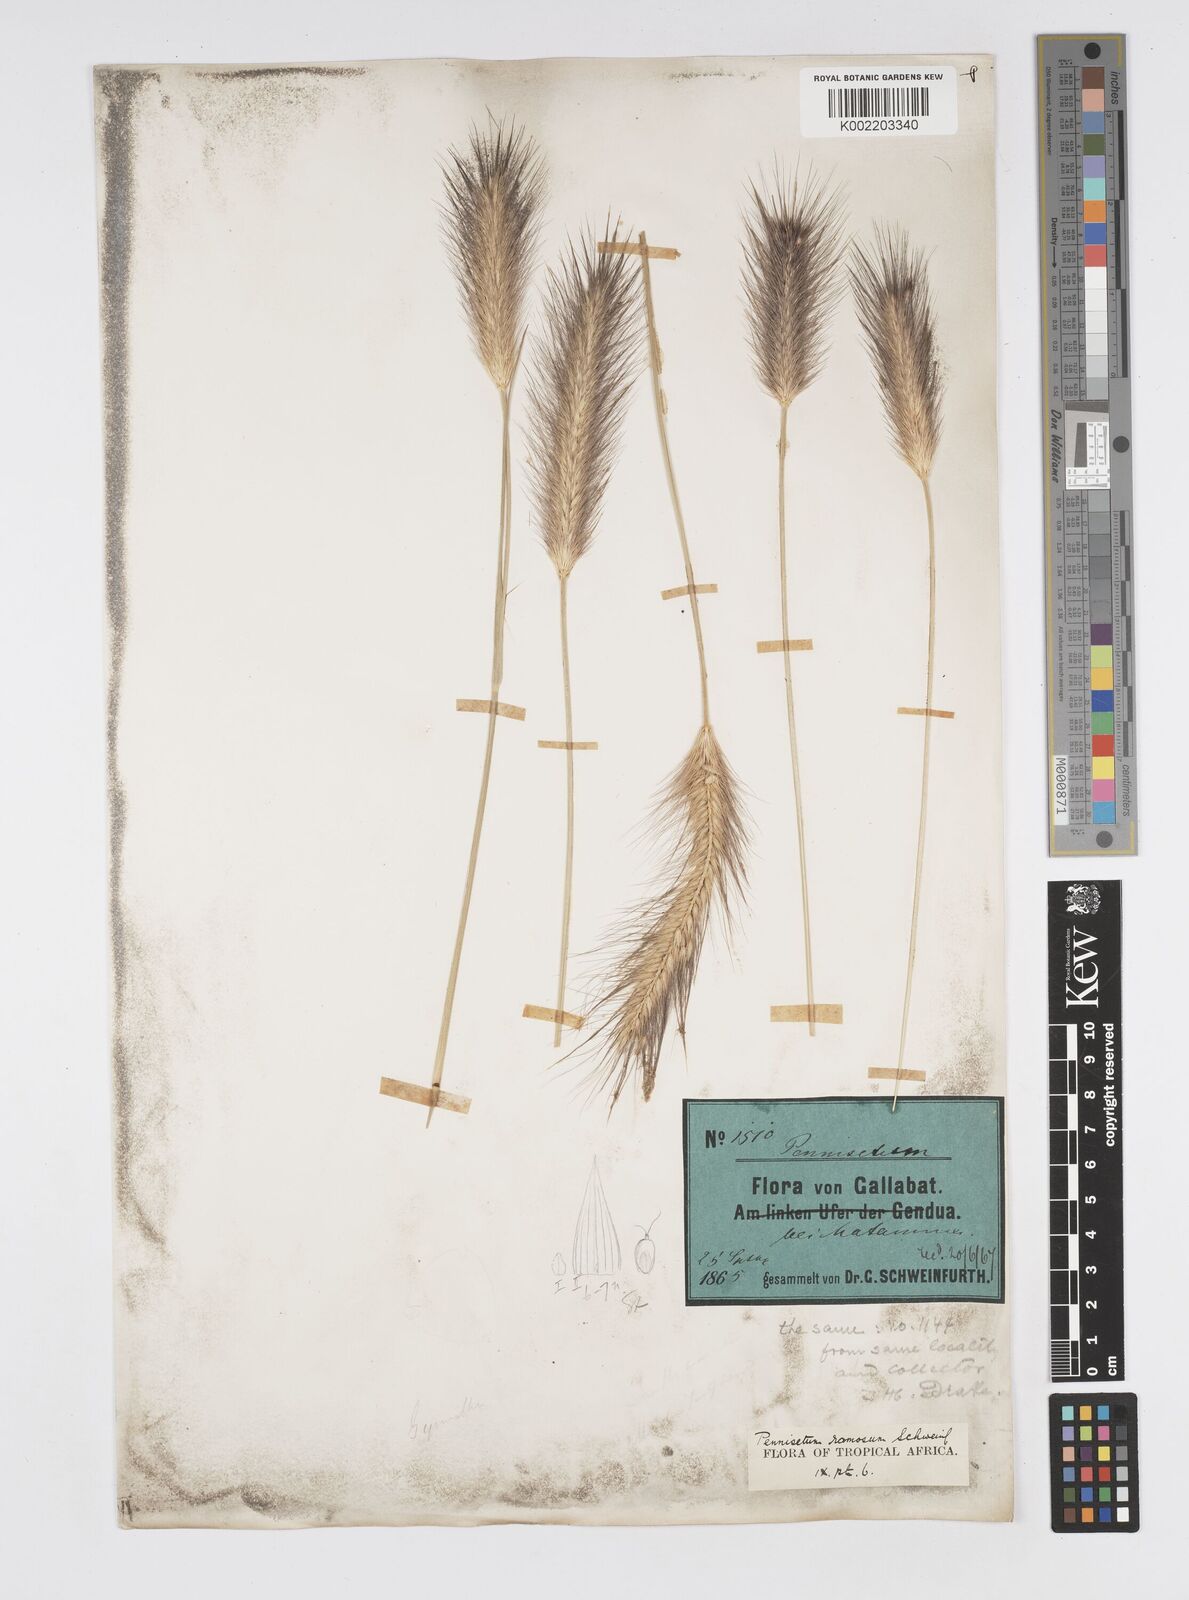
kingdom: Plantae
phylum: Tracheophyta
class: Liliopsida
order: Poales
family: Poaceae
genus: Cenchrus
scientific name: Cenchrus ramosus
